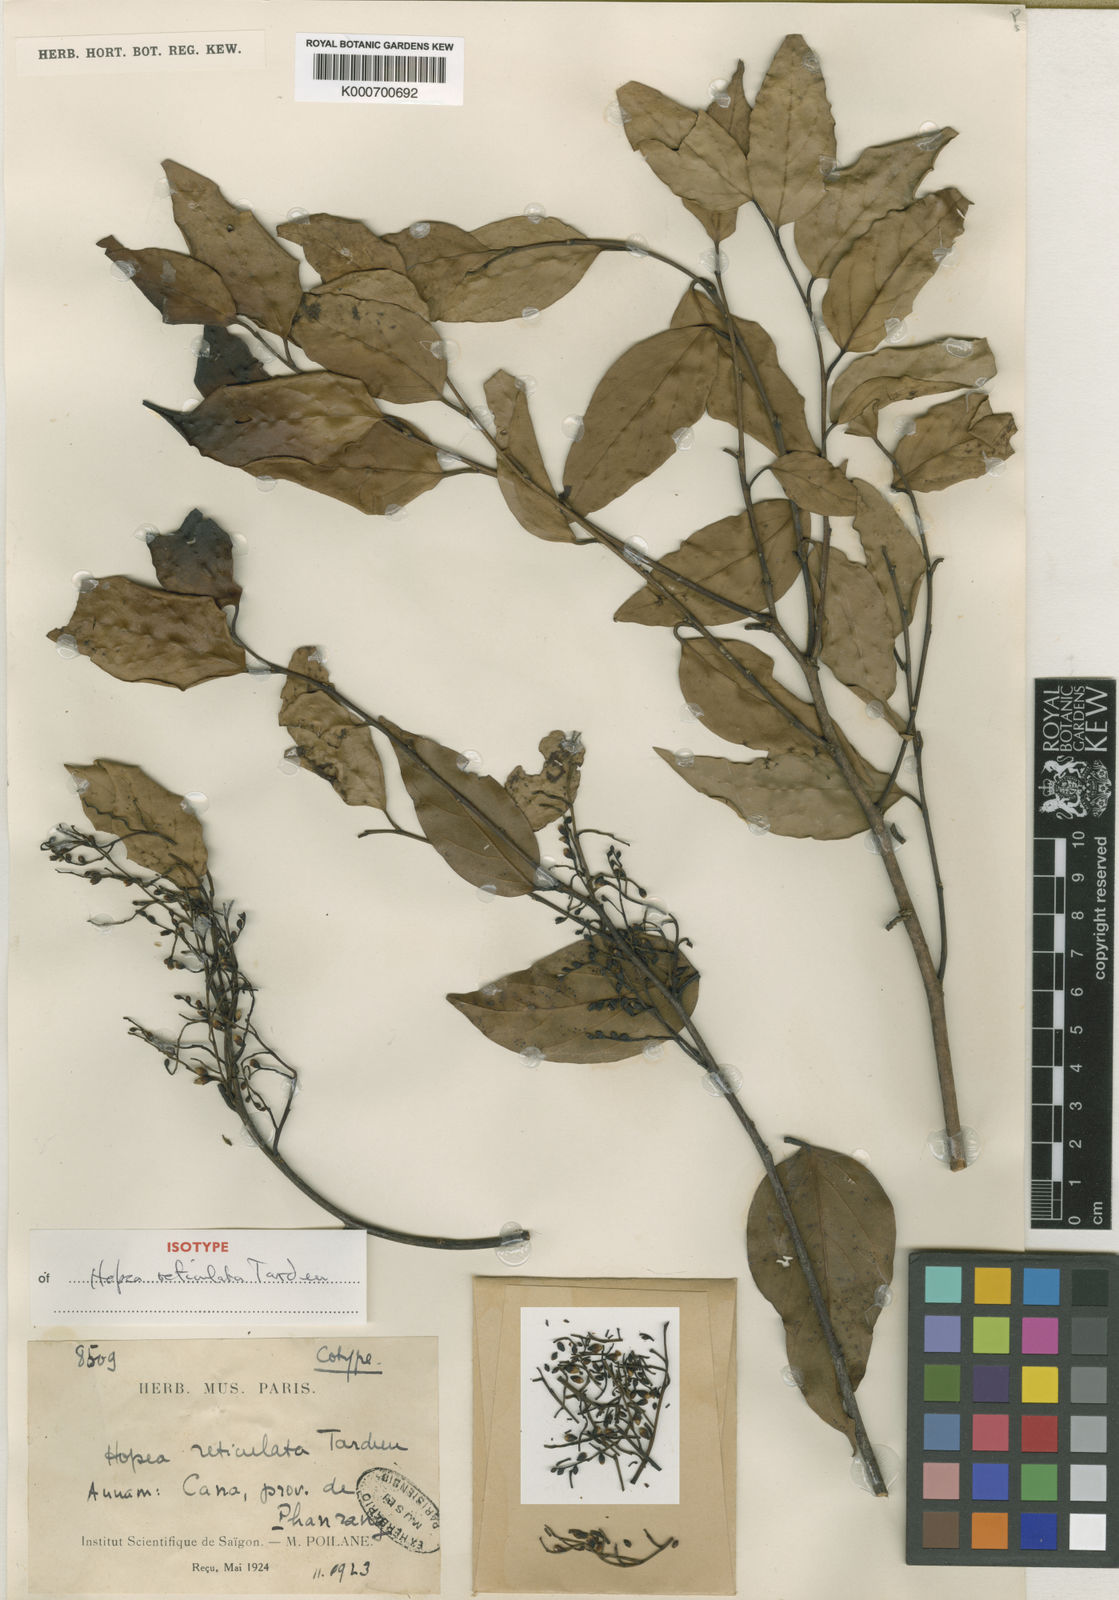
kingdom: Plantae
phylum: Tracheophyta
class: Magnoliopsida
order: Malvales
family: Dipterocarpaceae
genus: Hopea
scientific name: Hopea reticulata
